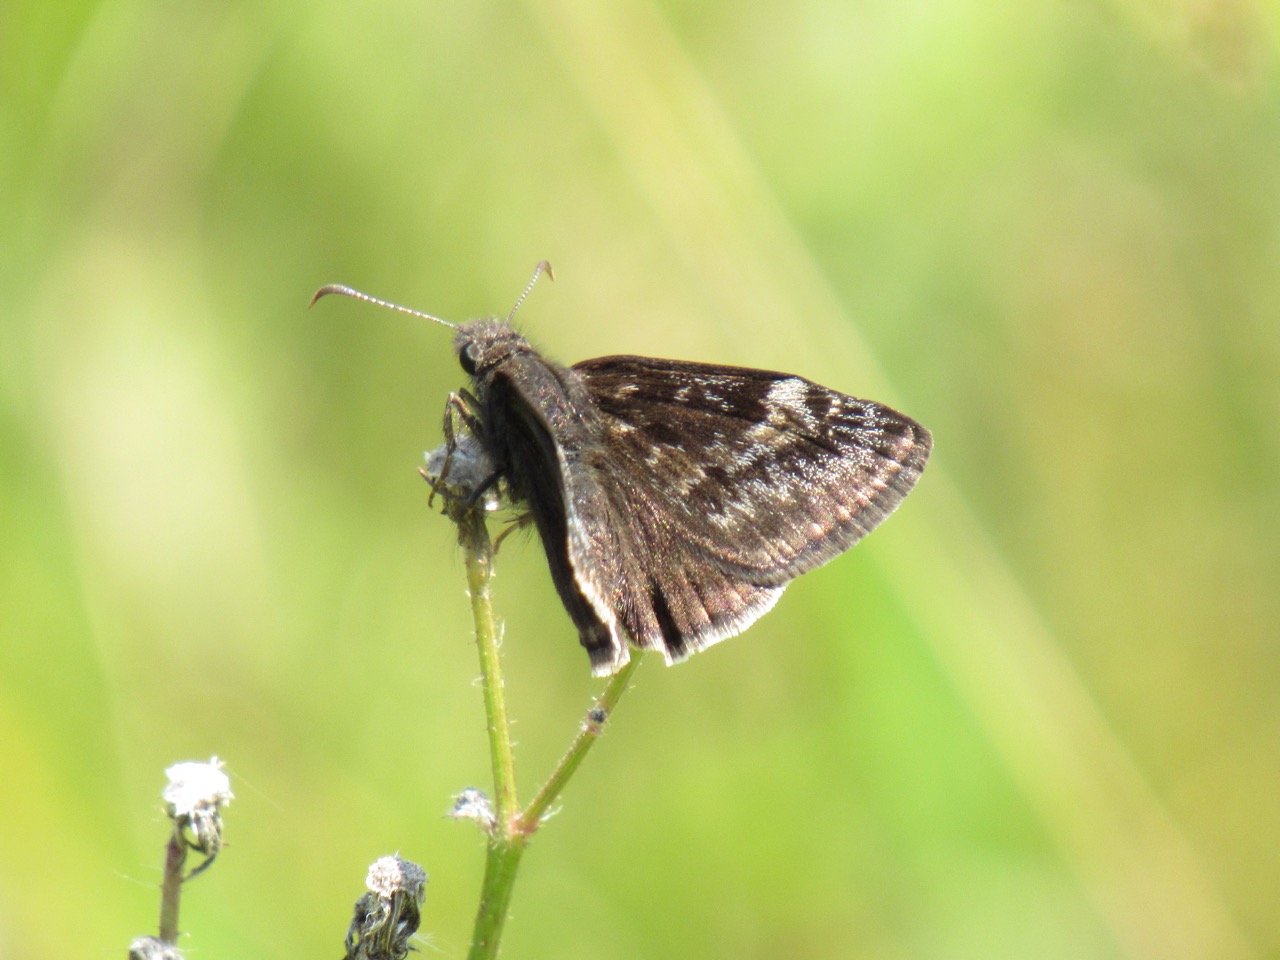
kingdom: Animalia
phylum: Arthropoda
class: Insecta
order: Lepidoptera
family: Hesperiidae
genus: Gesta
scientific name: Gesta
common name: Wild Indigo Duskywing
